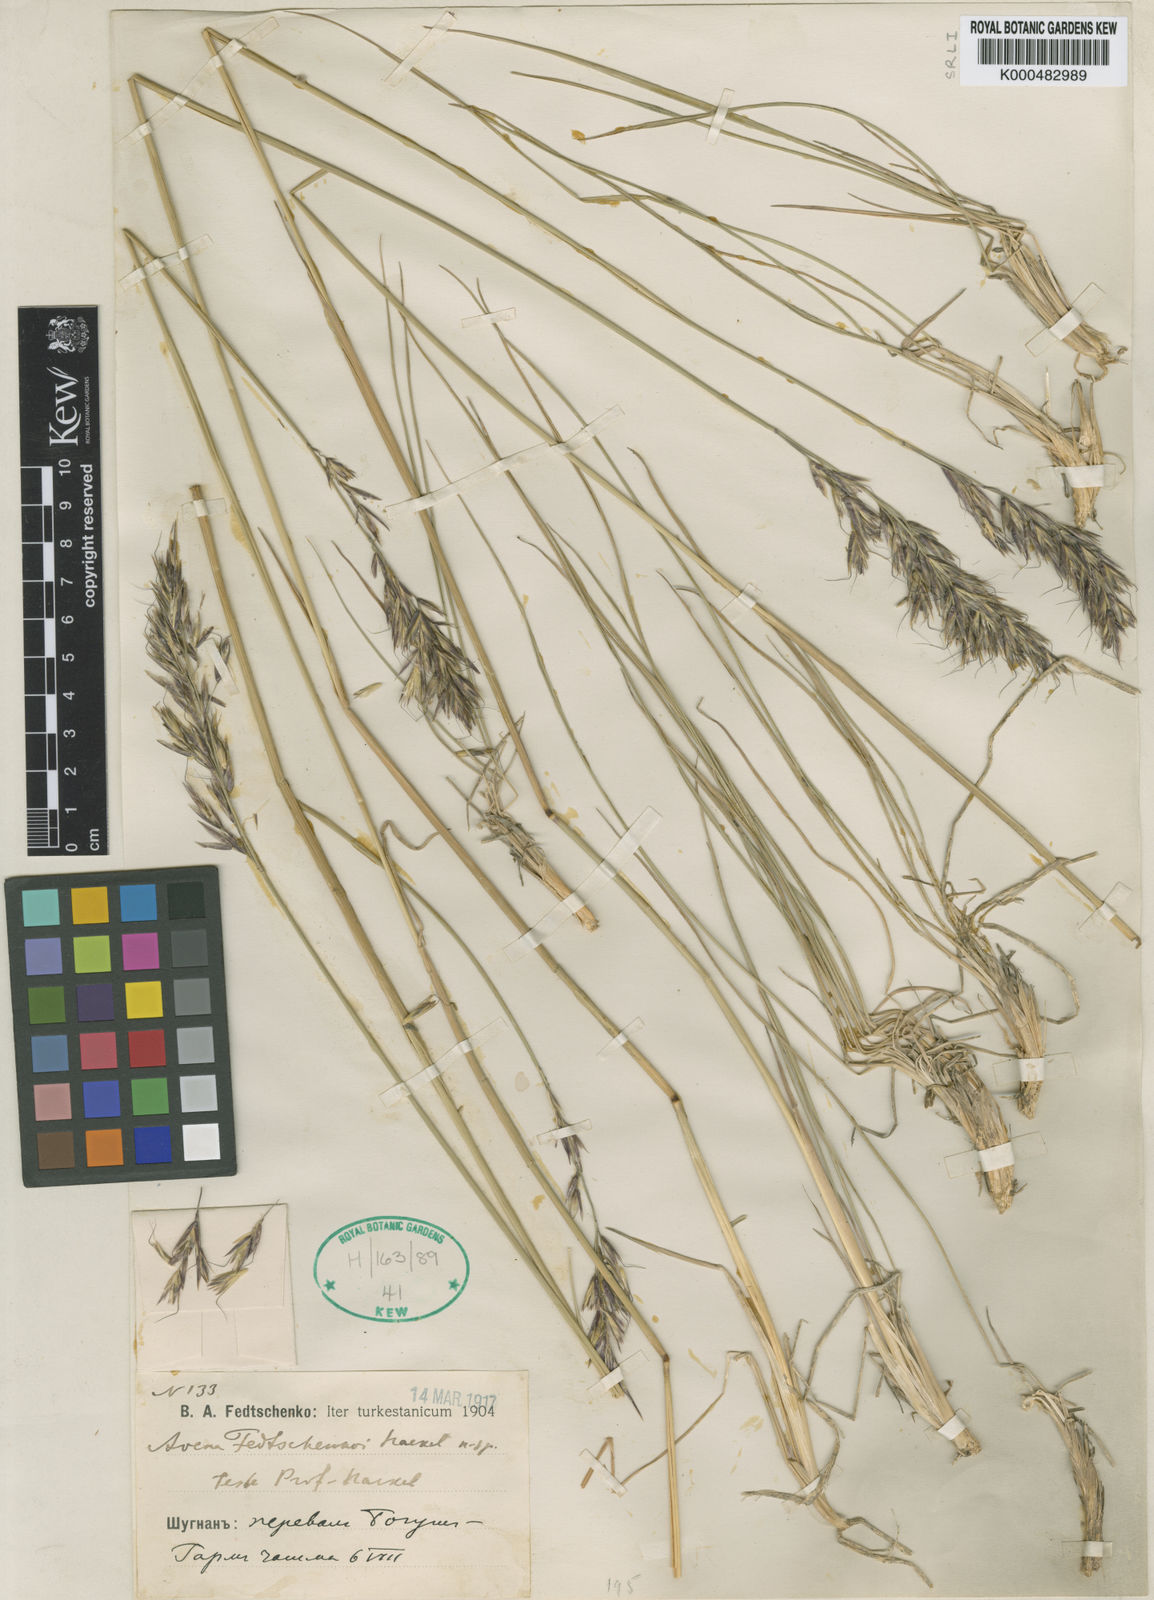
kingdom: Plantae
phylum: Tracheophyta
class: Liliopsida
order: Poales
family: Poaceae
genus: Helictotrichon
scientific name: Helictotrichon fedtschenkoi
